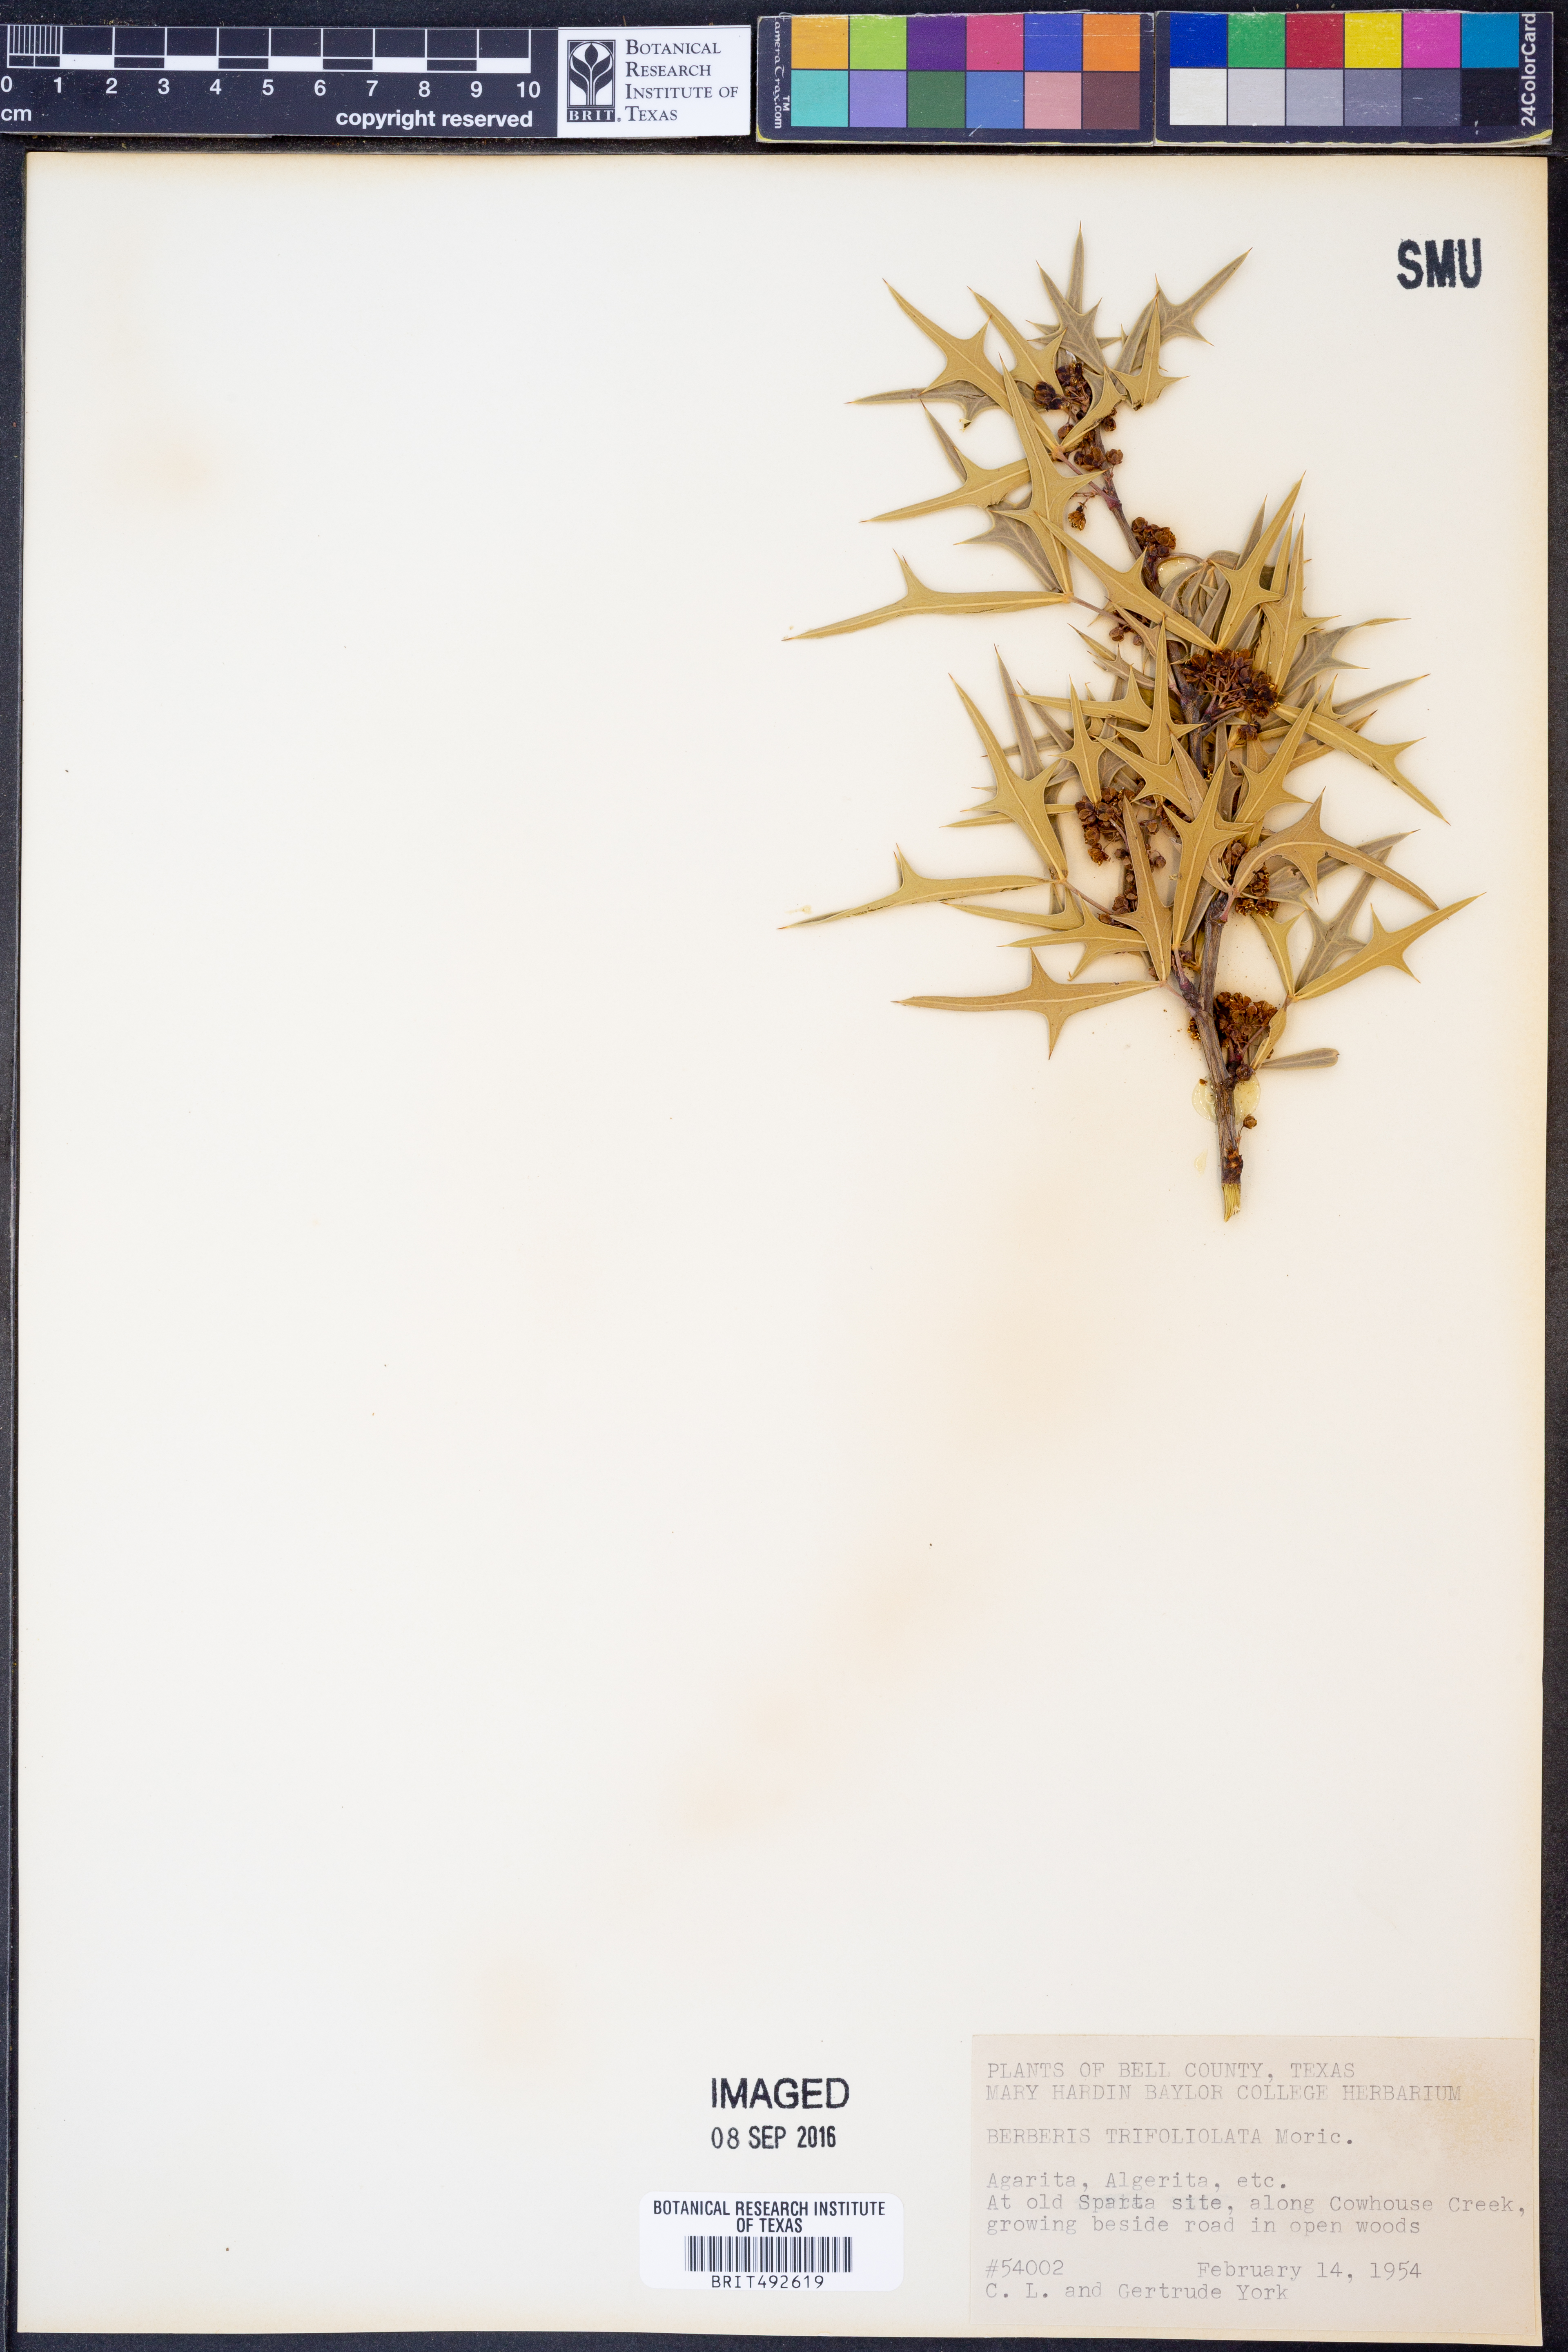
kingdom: Plantae
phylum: Tracheophyta
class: Magnoliopsida
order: Ranunculales
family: Berberidaceae
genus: Alloberberis
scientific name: Alloberberis trifoliolata
